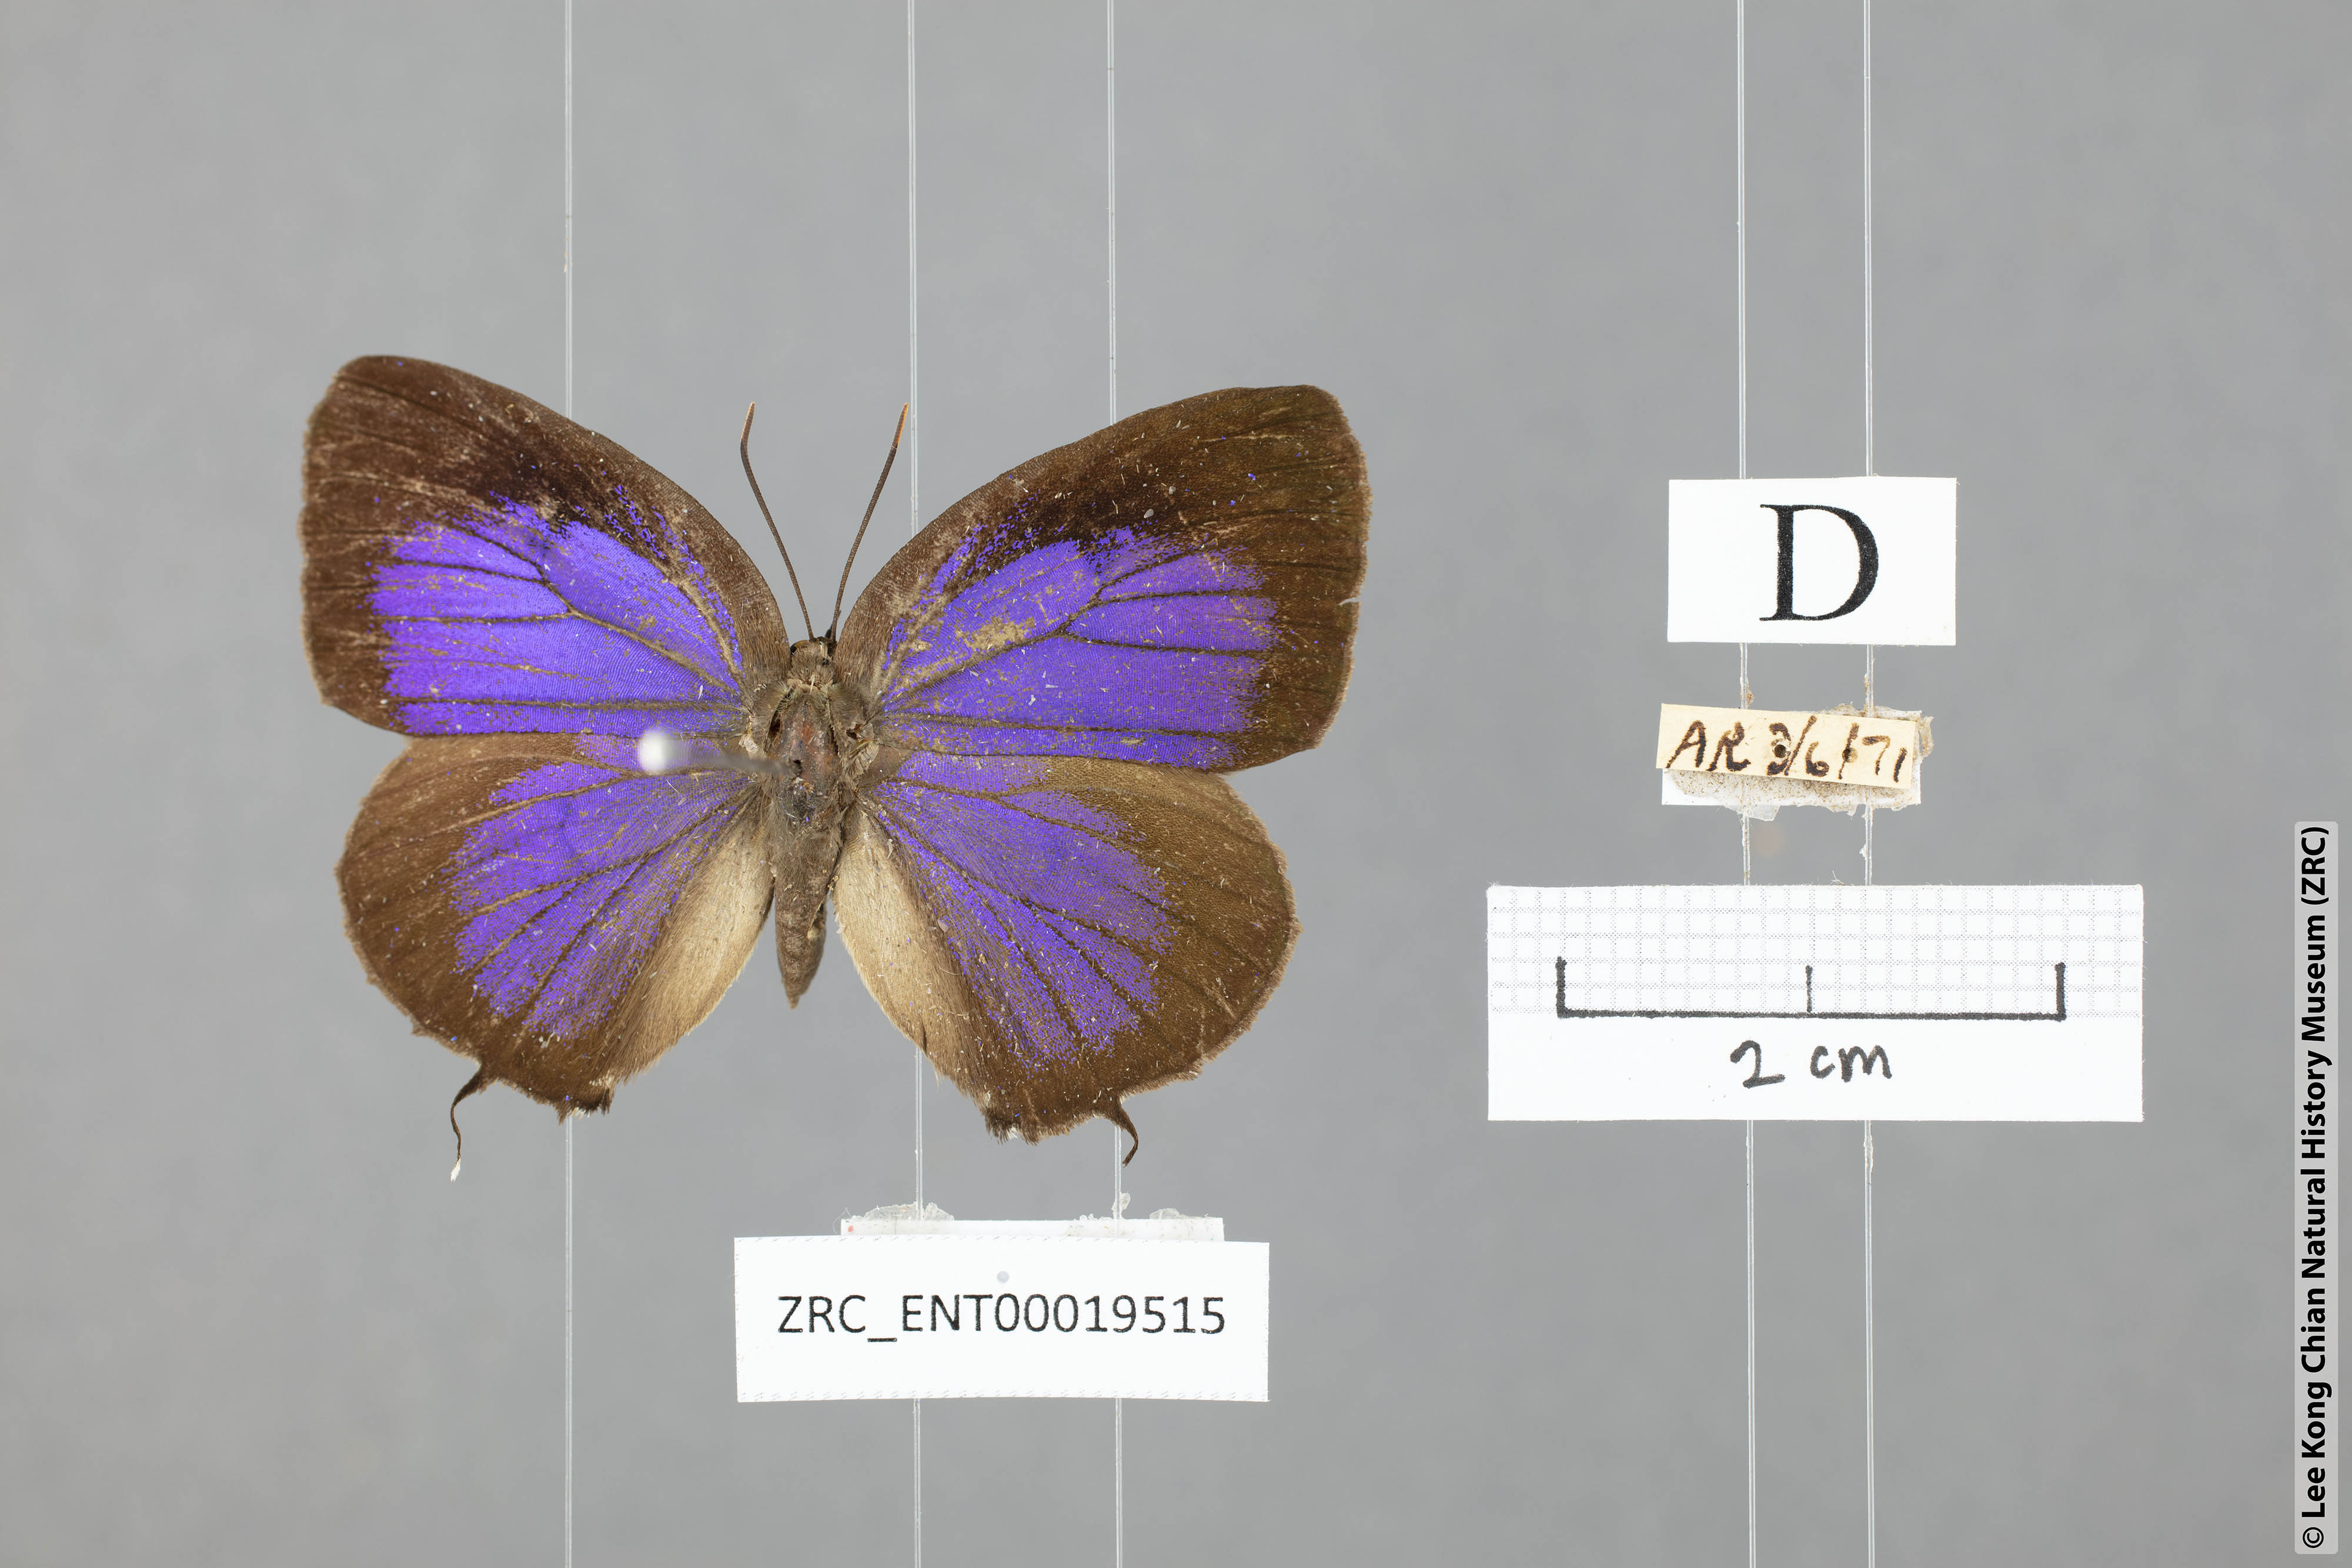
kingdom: Animalia
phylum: Arthropoda
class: Insecta
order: Lepidoptera
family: Lycaenidae
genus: Arhopala
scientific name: Arhopala horsfieldi
